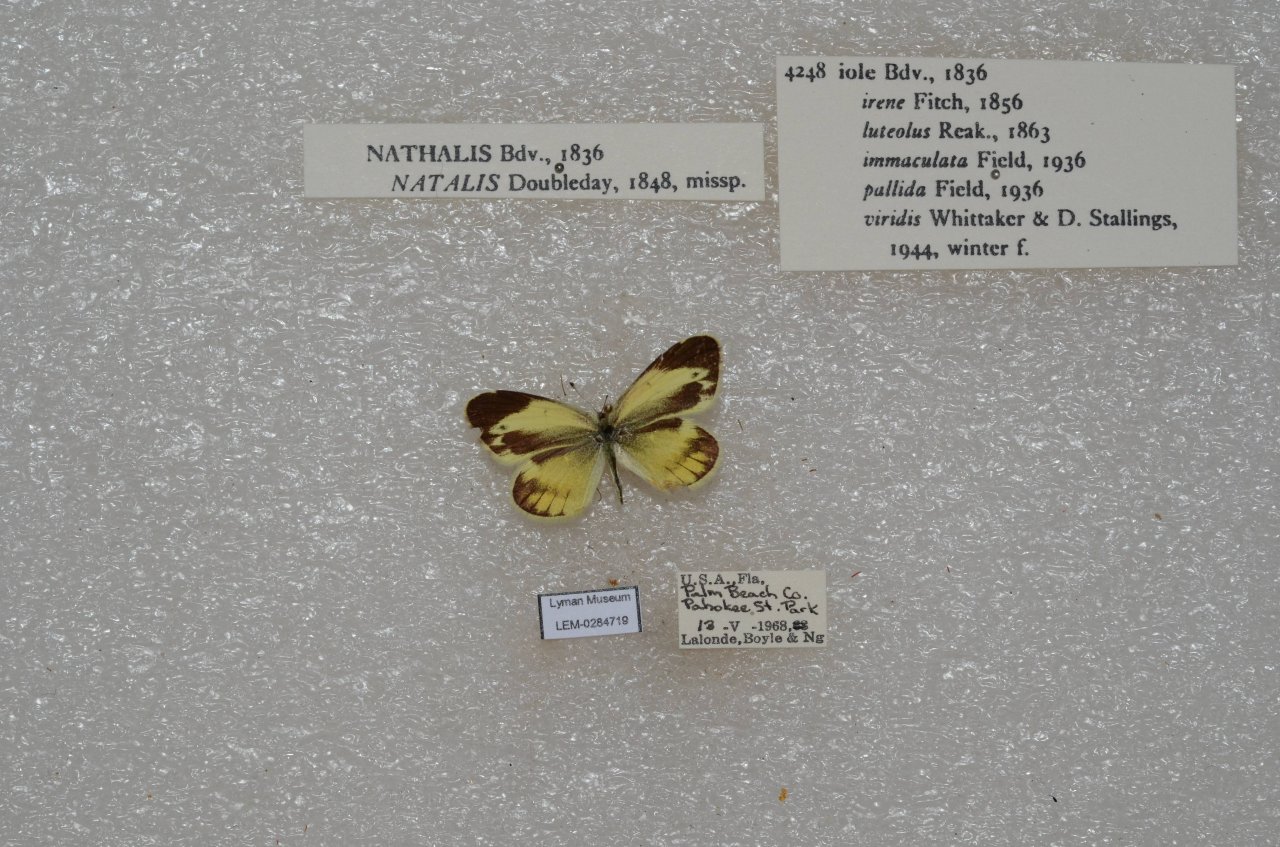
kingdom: Animalia
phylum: Arthropoda
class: Insecta
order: Lepidoptera
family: Pieridae
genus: Nathalis
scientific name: Nathalis iole
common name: Dainty Sulphur
